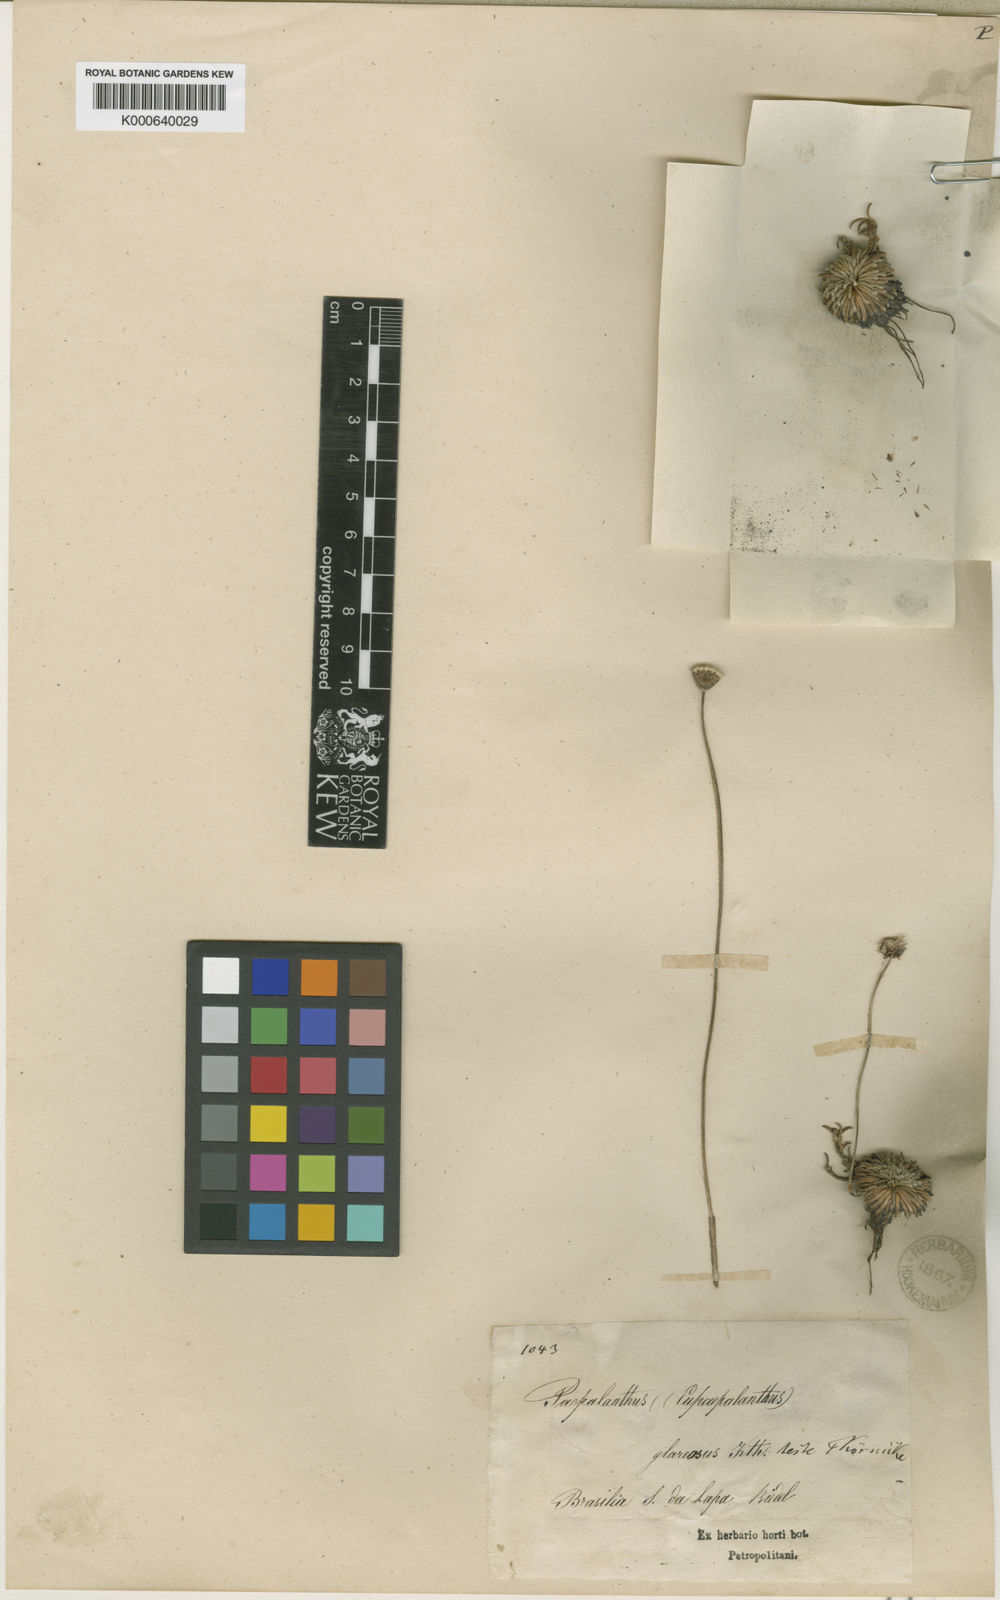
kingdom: Plantae
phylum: Tracheophyta
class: Liliopsida
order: Poales
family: Eriocaulaceae
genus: Paepalanthus
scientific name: Paepalanthus glareosus
